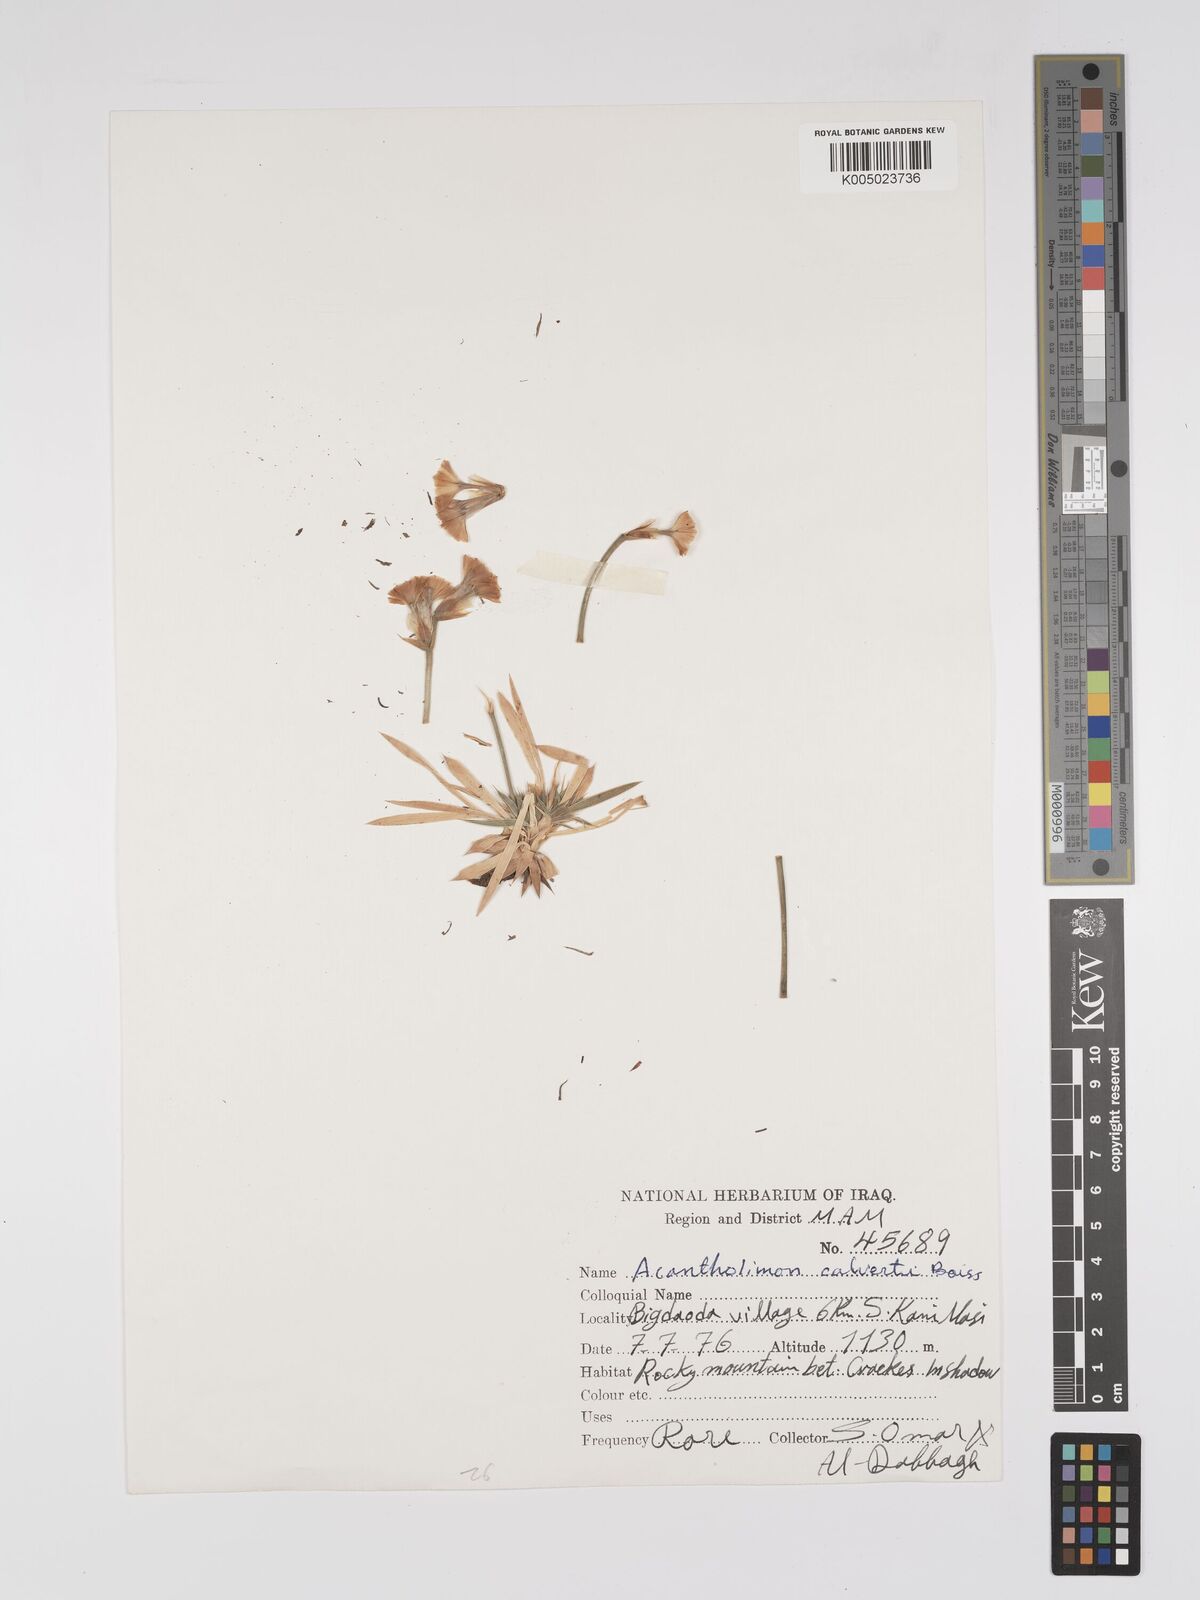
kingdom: Plantae
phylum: Tracheophyta
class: Magnoliopsida
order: Caryophyllales
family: Plumbaginaceae
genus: Acantholimon
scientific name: Acantholimon calvertii
